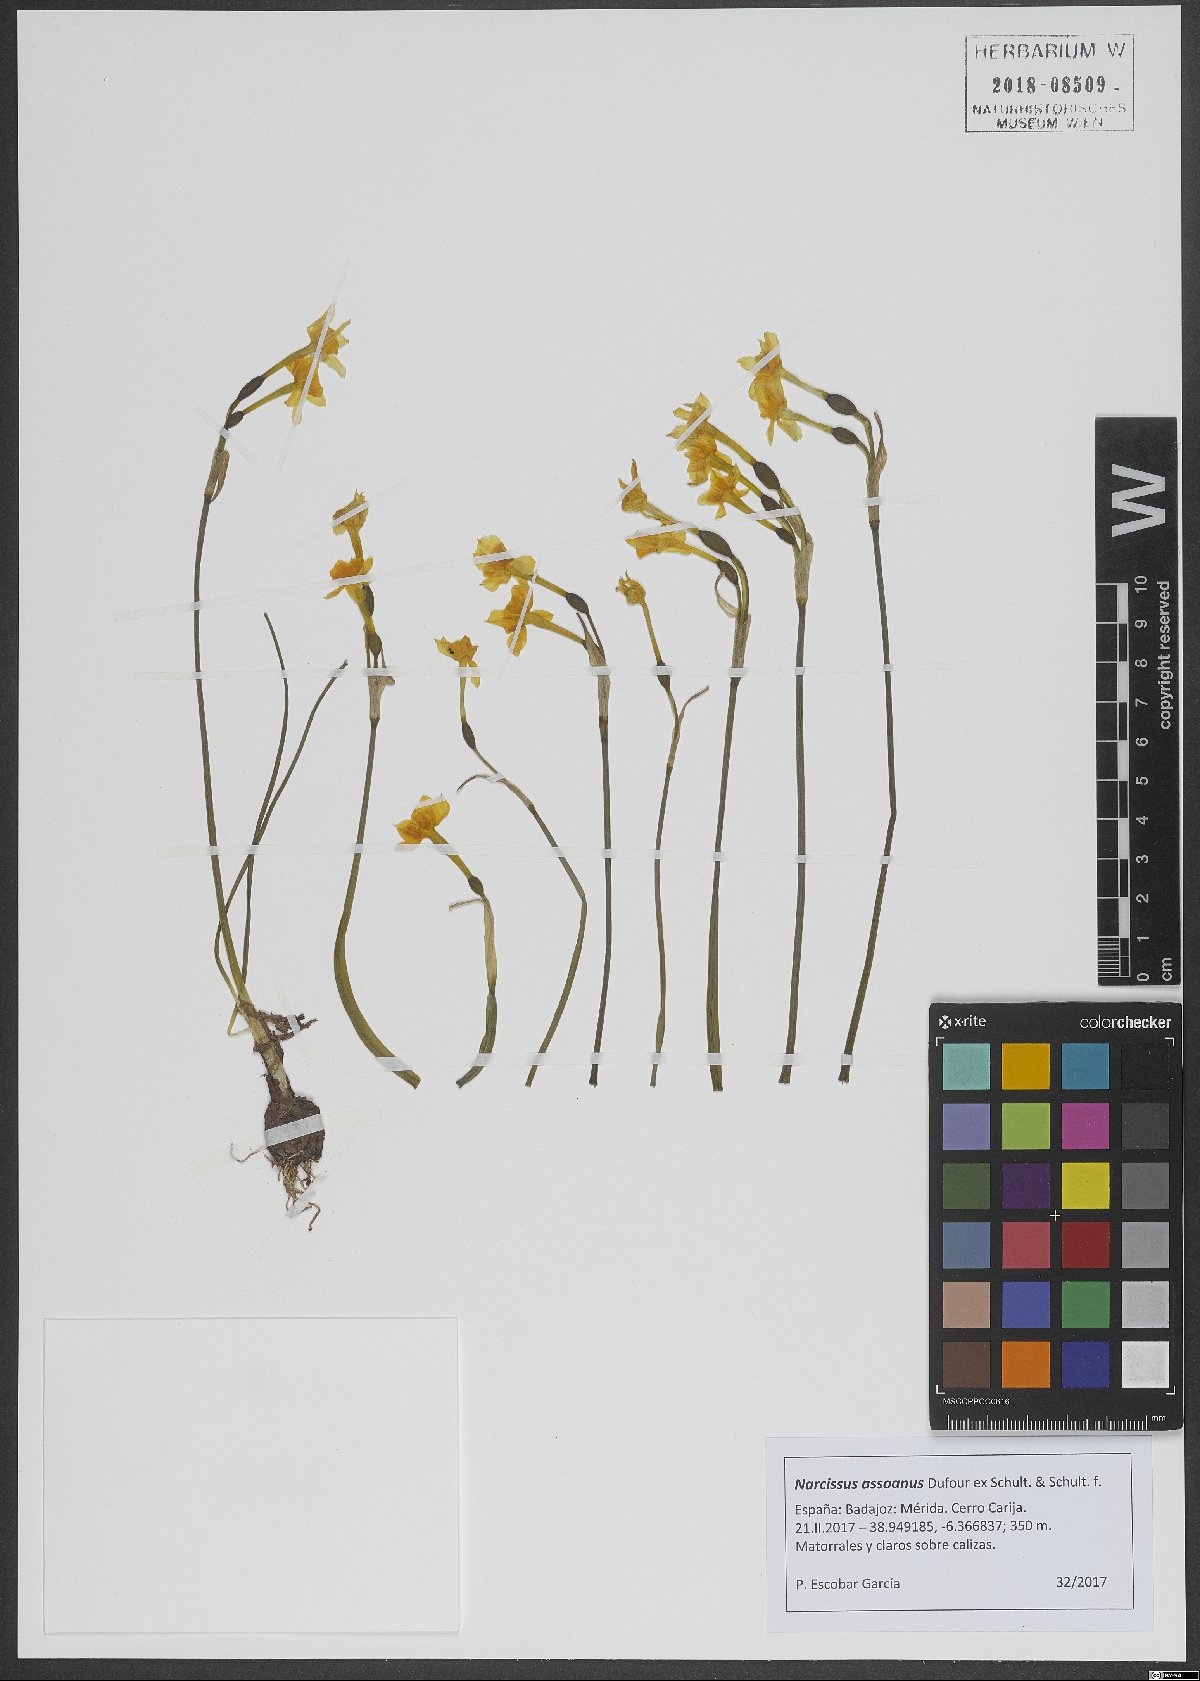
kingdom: Plantae
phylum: Tracheophyta
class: Liliopsida
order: Asparagales
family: Amaryllidaceae
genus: Narcissus
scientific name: Narcissus assoanus
